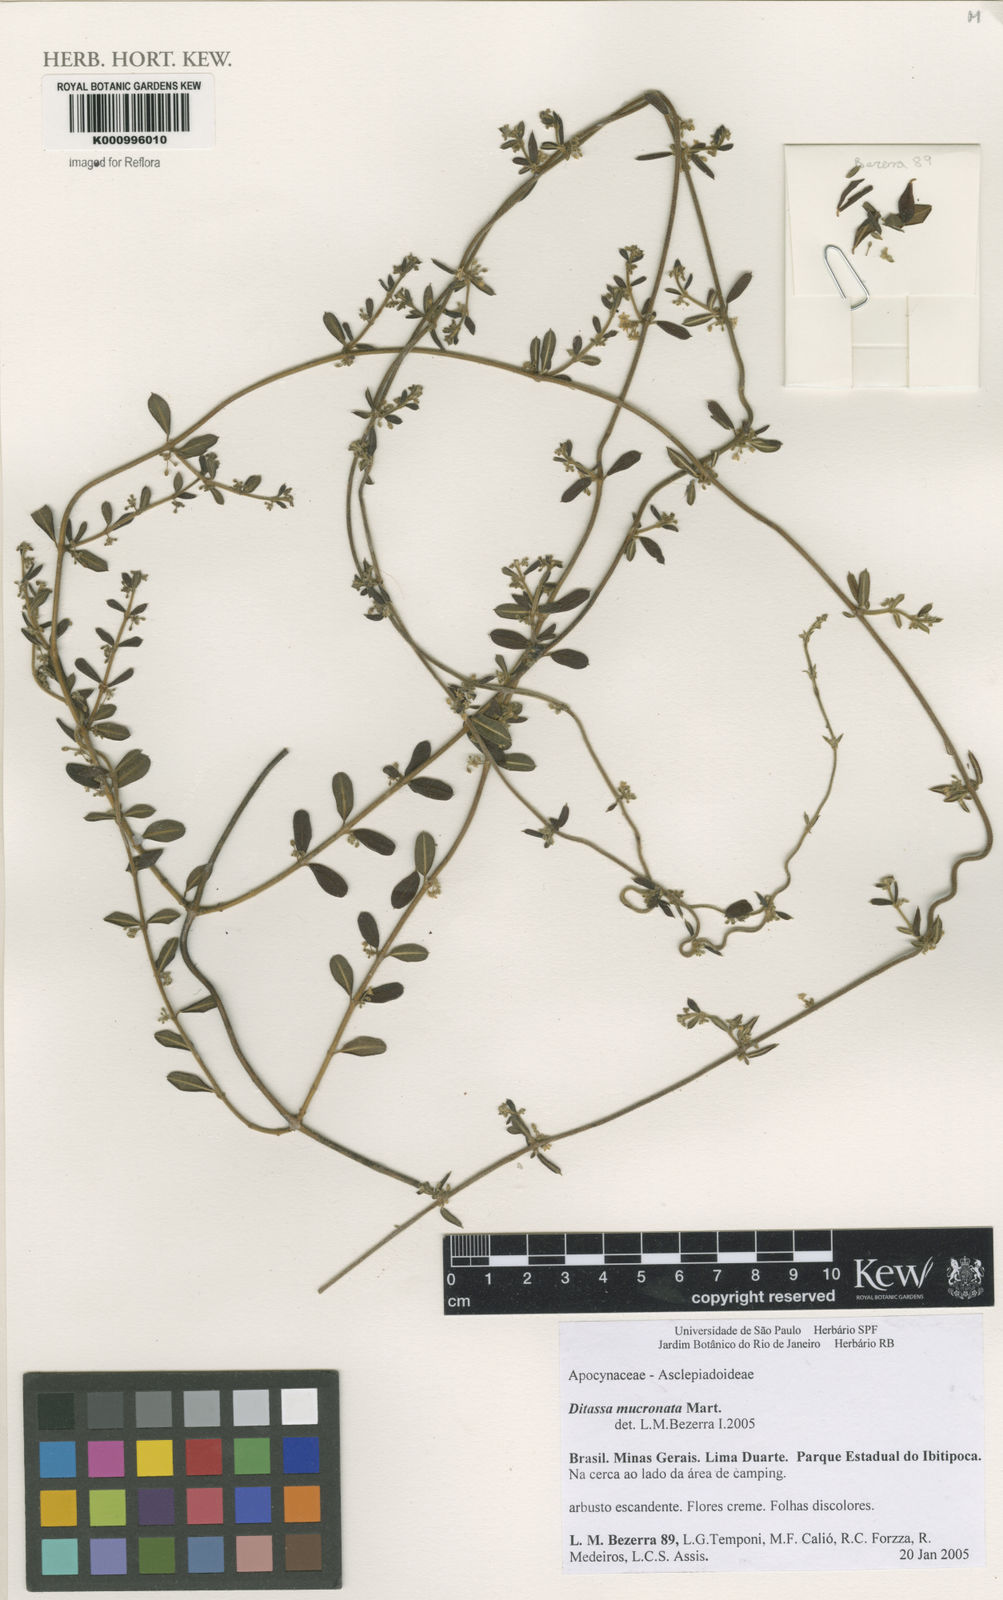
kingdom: Plantae
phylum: Tracheophyta
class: Magnoliopsida
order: Gentianales
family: Apocynaceae
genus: Ditassa
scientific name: Ditassa mucronata
